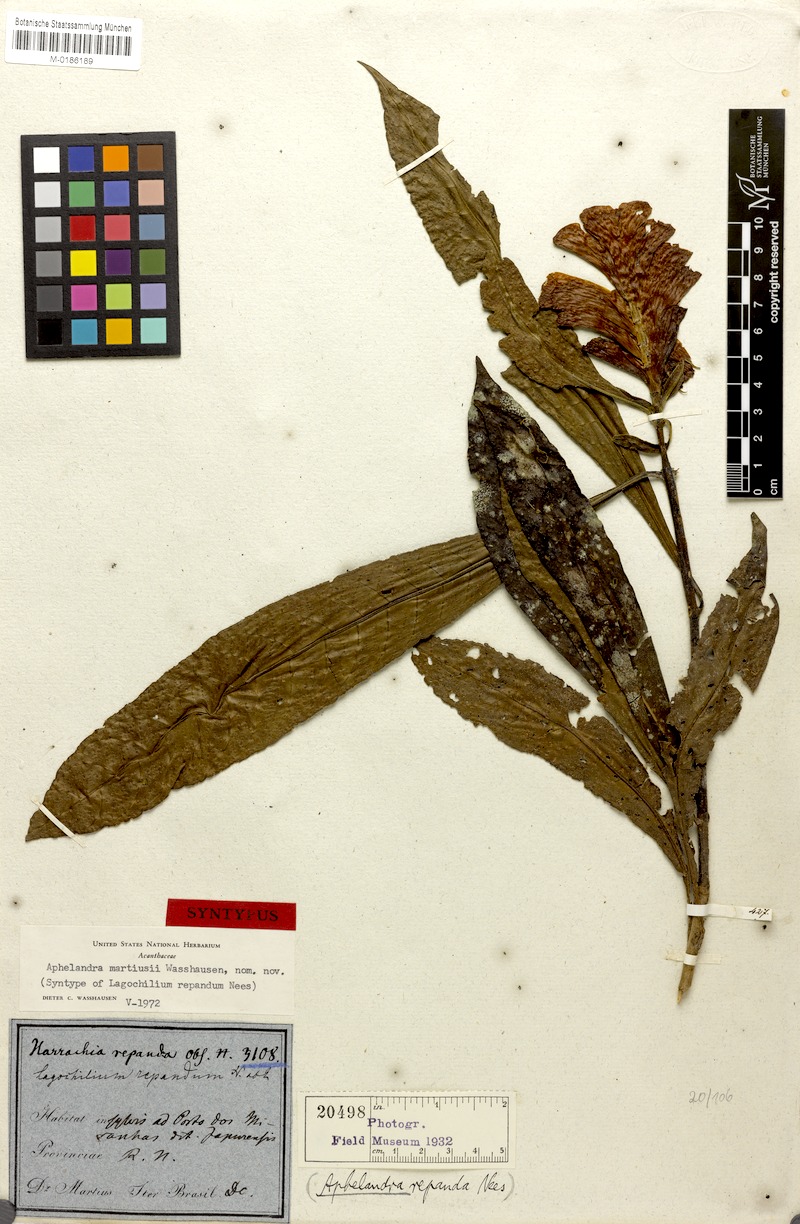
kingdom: Plantae
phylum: Tracheophyta
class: Magnoliopsida
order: Lamiales
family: Acanthaceae
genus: Aphelandra
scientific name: Aphelandra martiusii
